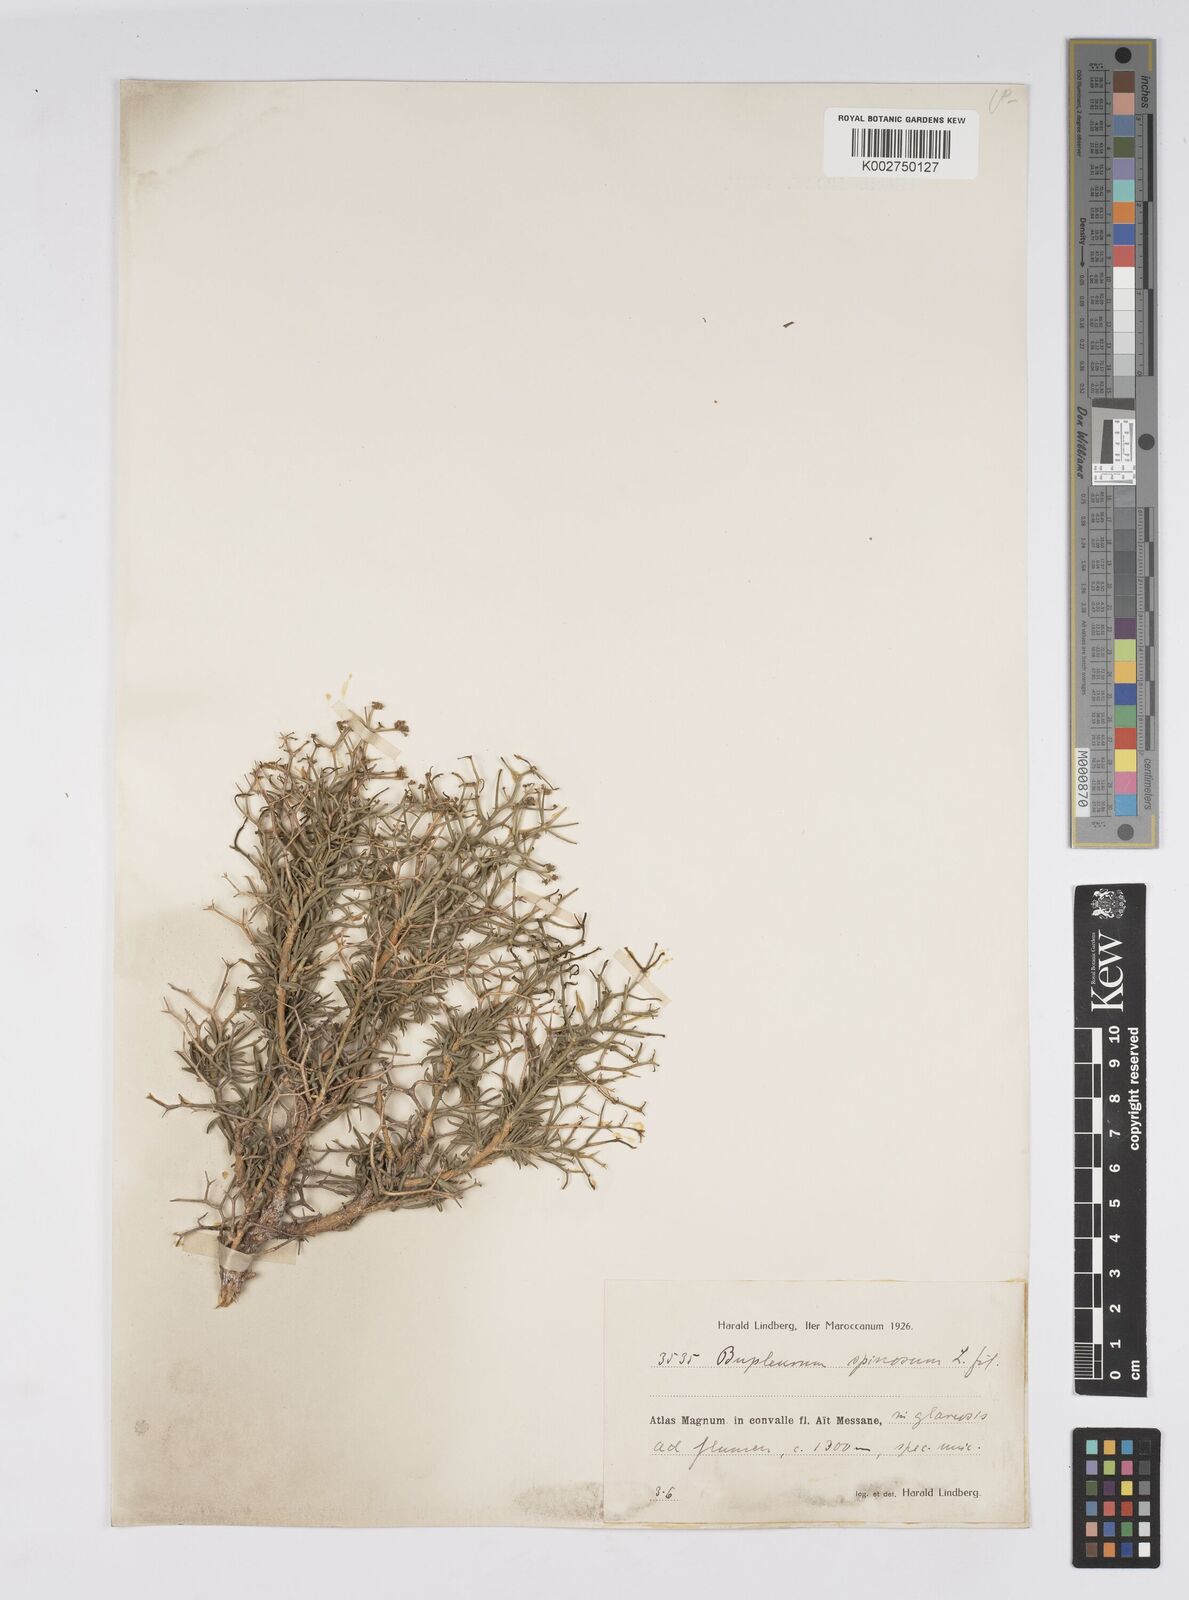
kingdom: Plantae
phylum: Tracheophyta
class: Magnoliopsida
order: Apiales
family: Apiaceae
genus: Bupleurum
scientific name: Bupleurum fruticescens
